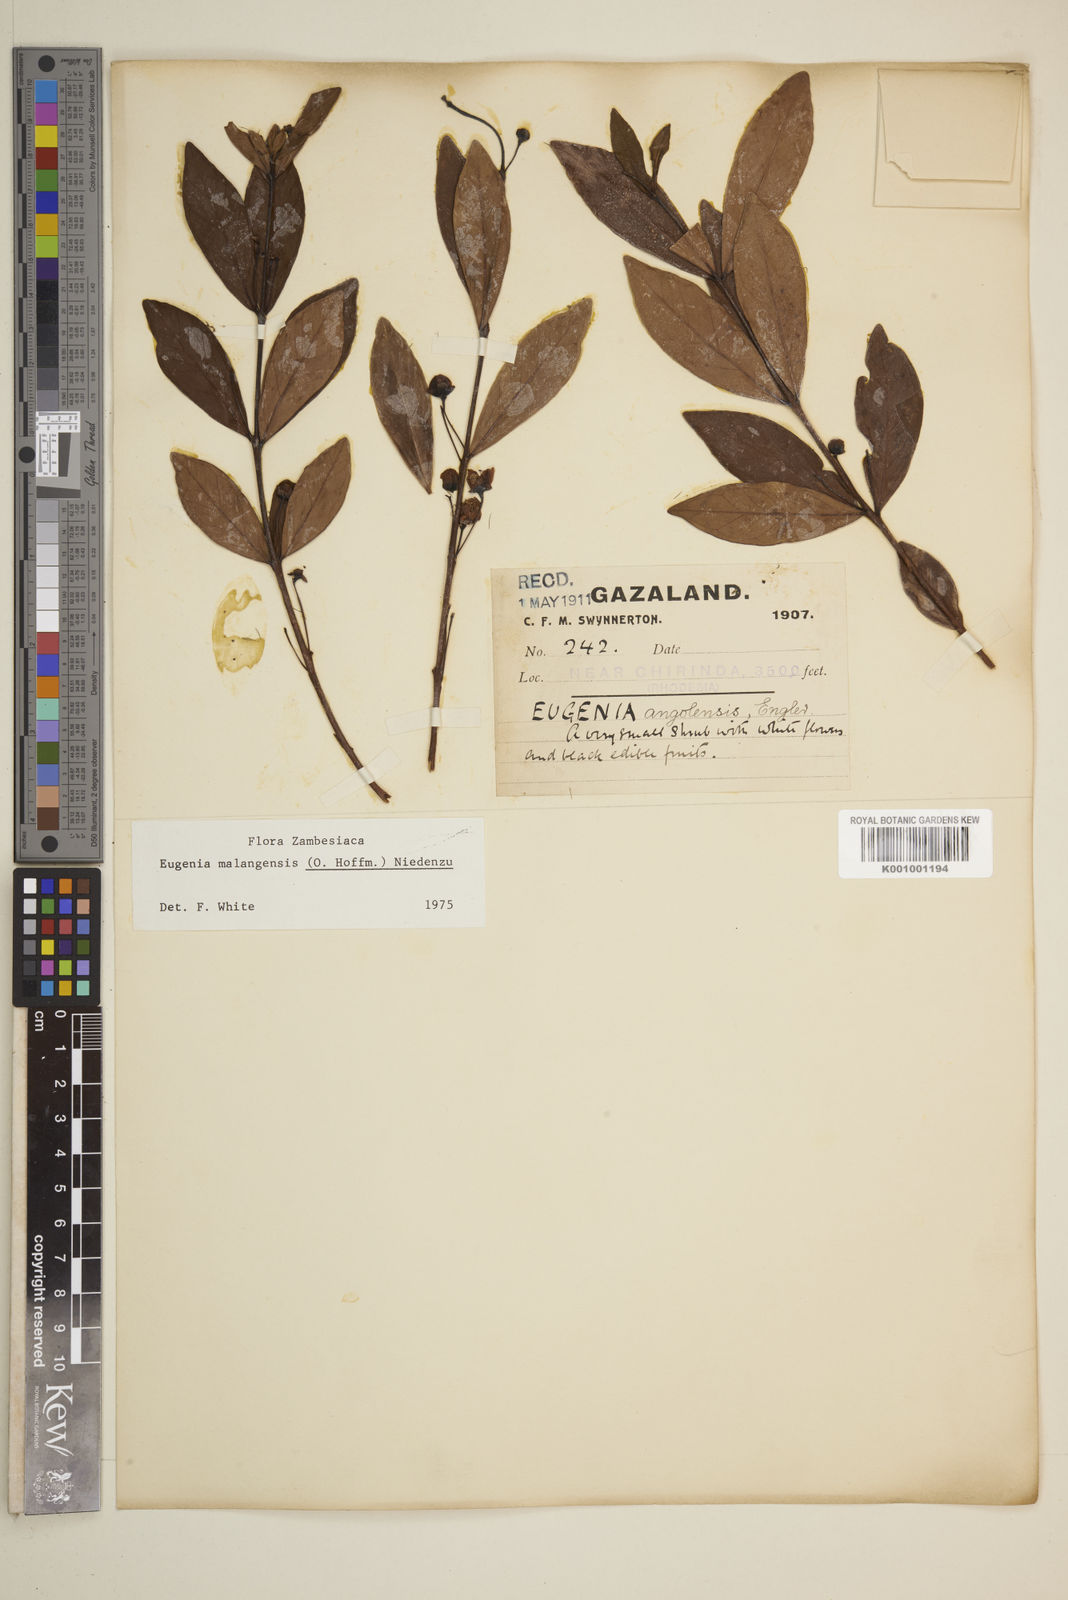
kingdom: Plantae
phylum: Tracheophyta
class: Magnoliopsida
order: Myrtales
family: Myrtaceae
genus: Eugenia
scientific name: Eugenia malangensis
